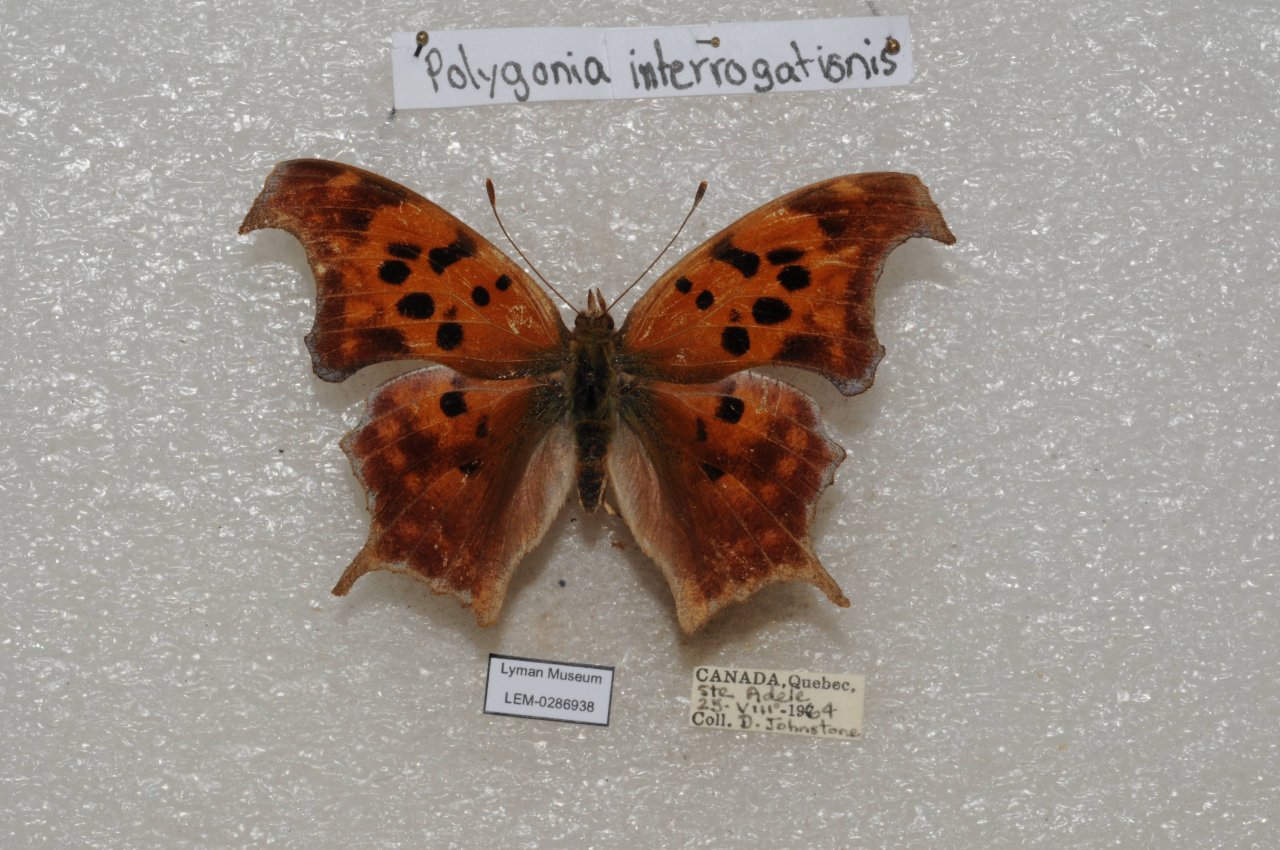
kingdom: Animalia
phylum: Arthropoda
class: Insecta
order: Lepidoptera
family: Nymphalidae
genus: Polygonia
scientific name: Polygonia interrogationis
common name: Question Mark
